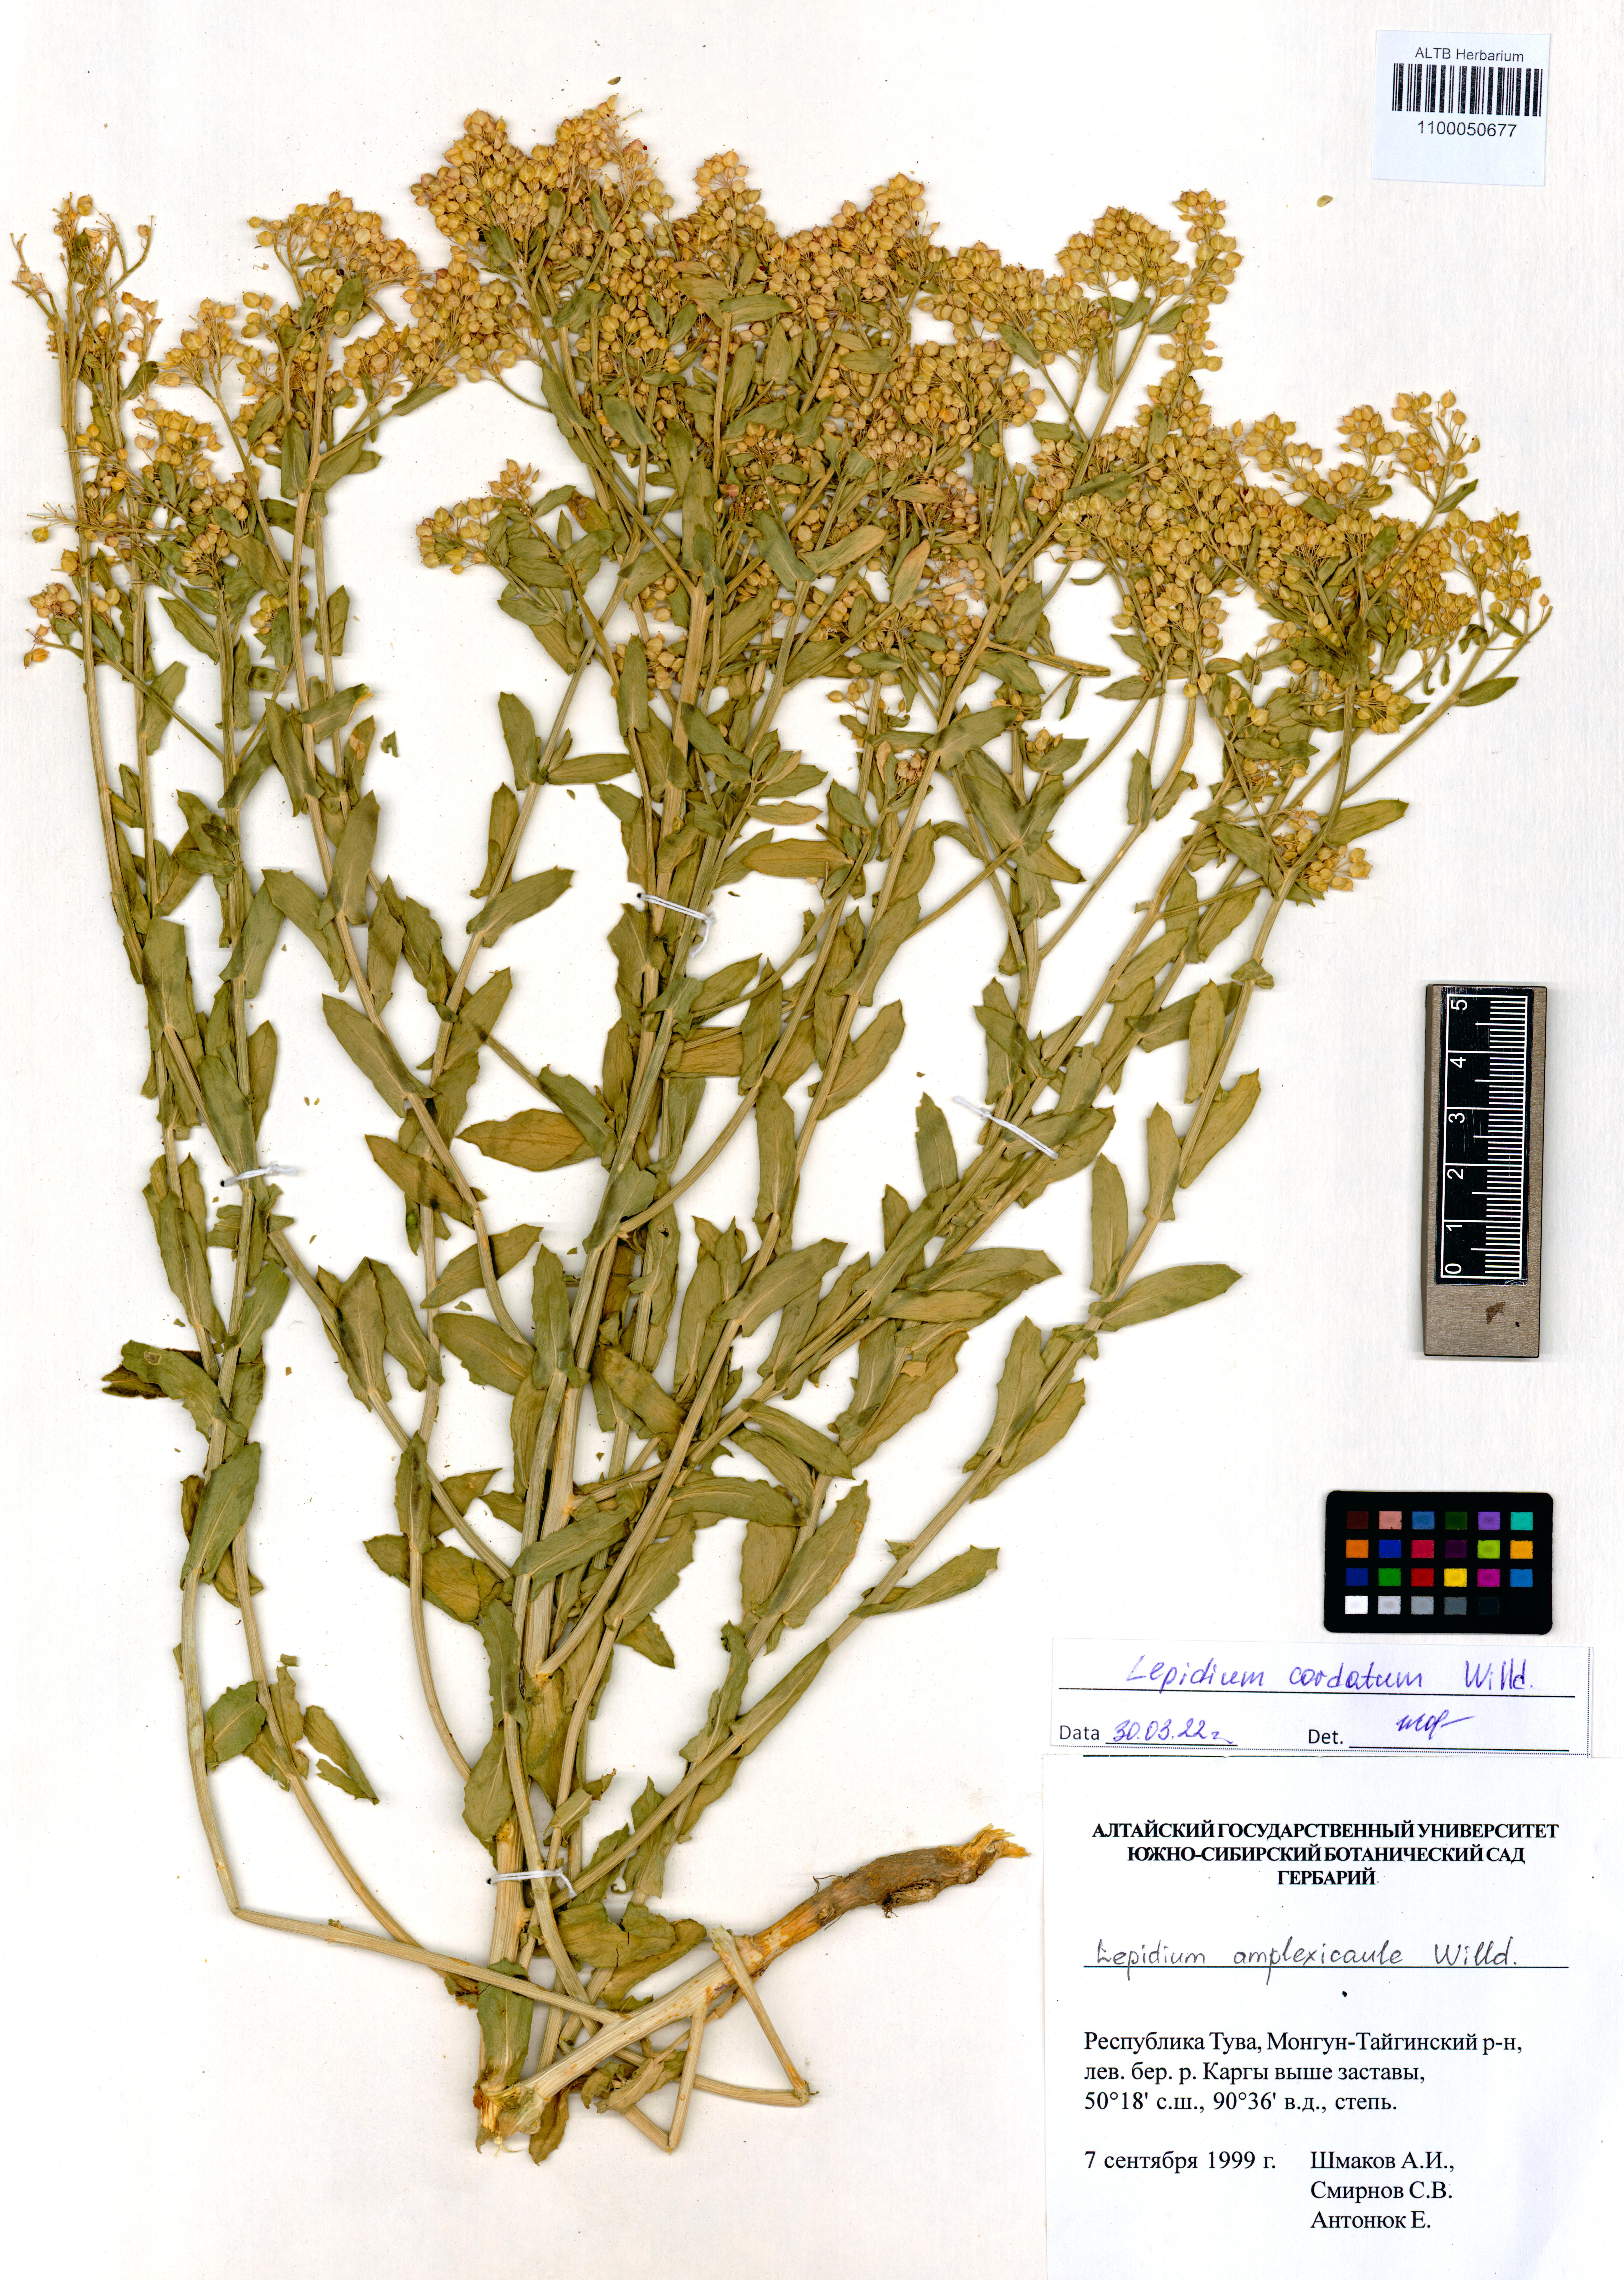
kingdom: Plantae
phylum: Tracheophyta
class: Magnoliopsida
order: Brassicales
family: Brassicaceae
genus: Lepidium
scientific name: Lepidium cordatum
